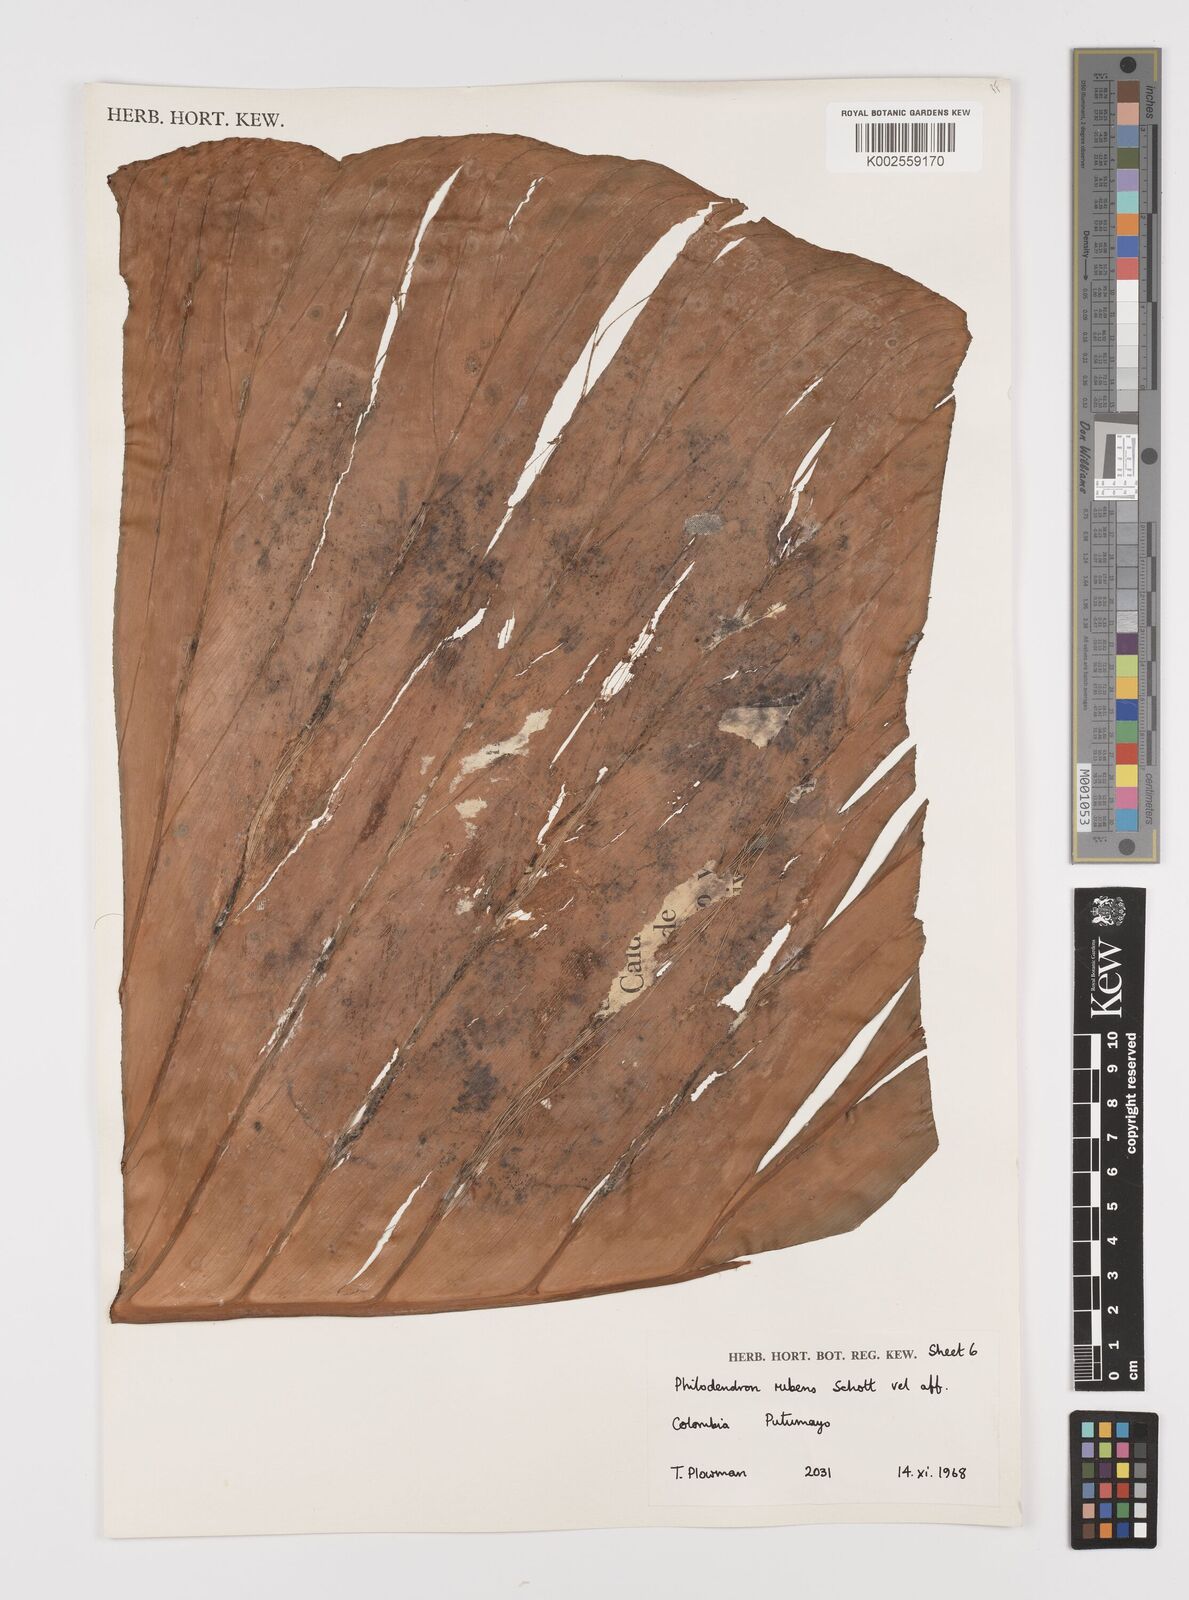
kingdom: Plantae
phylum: Tracheophyta
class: Liliopsida
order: Alismatales
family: Araceae
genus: Philodendron
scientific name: Philodendron ornatum
